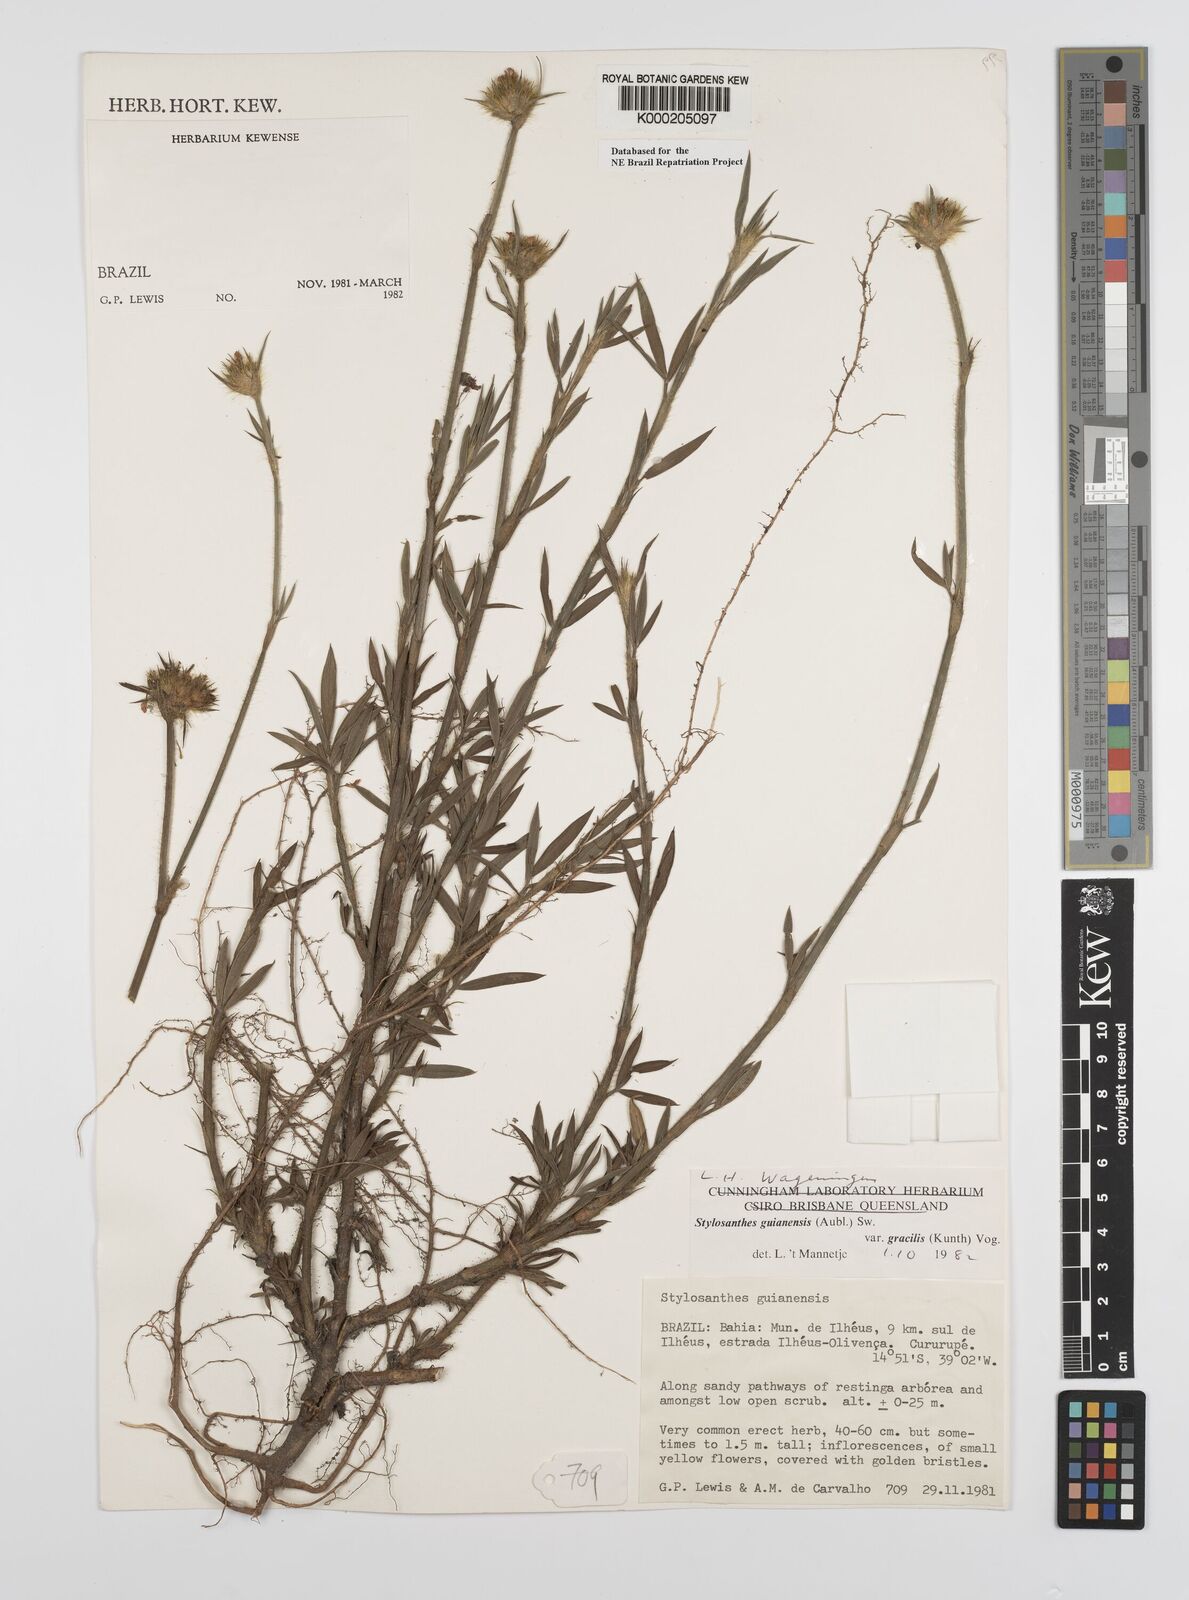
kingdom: Plantae
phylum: Tracheophyta
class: Magnoliopsida
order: Fabales
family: Fabaceae
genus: Stylosanthes
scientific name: Stylosanthes guianensis
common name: Pencil flower
